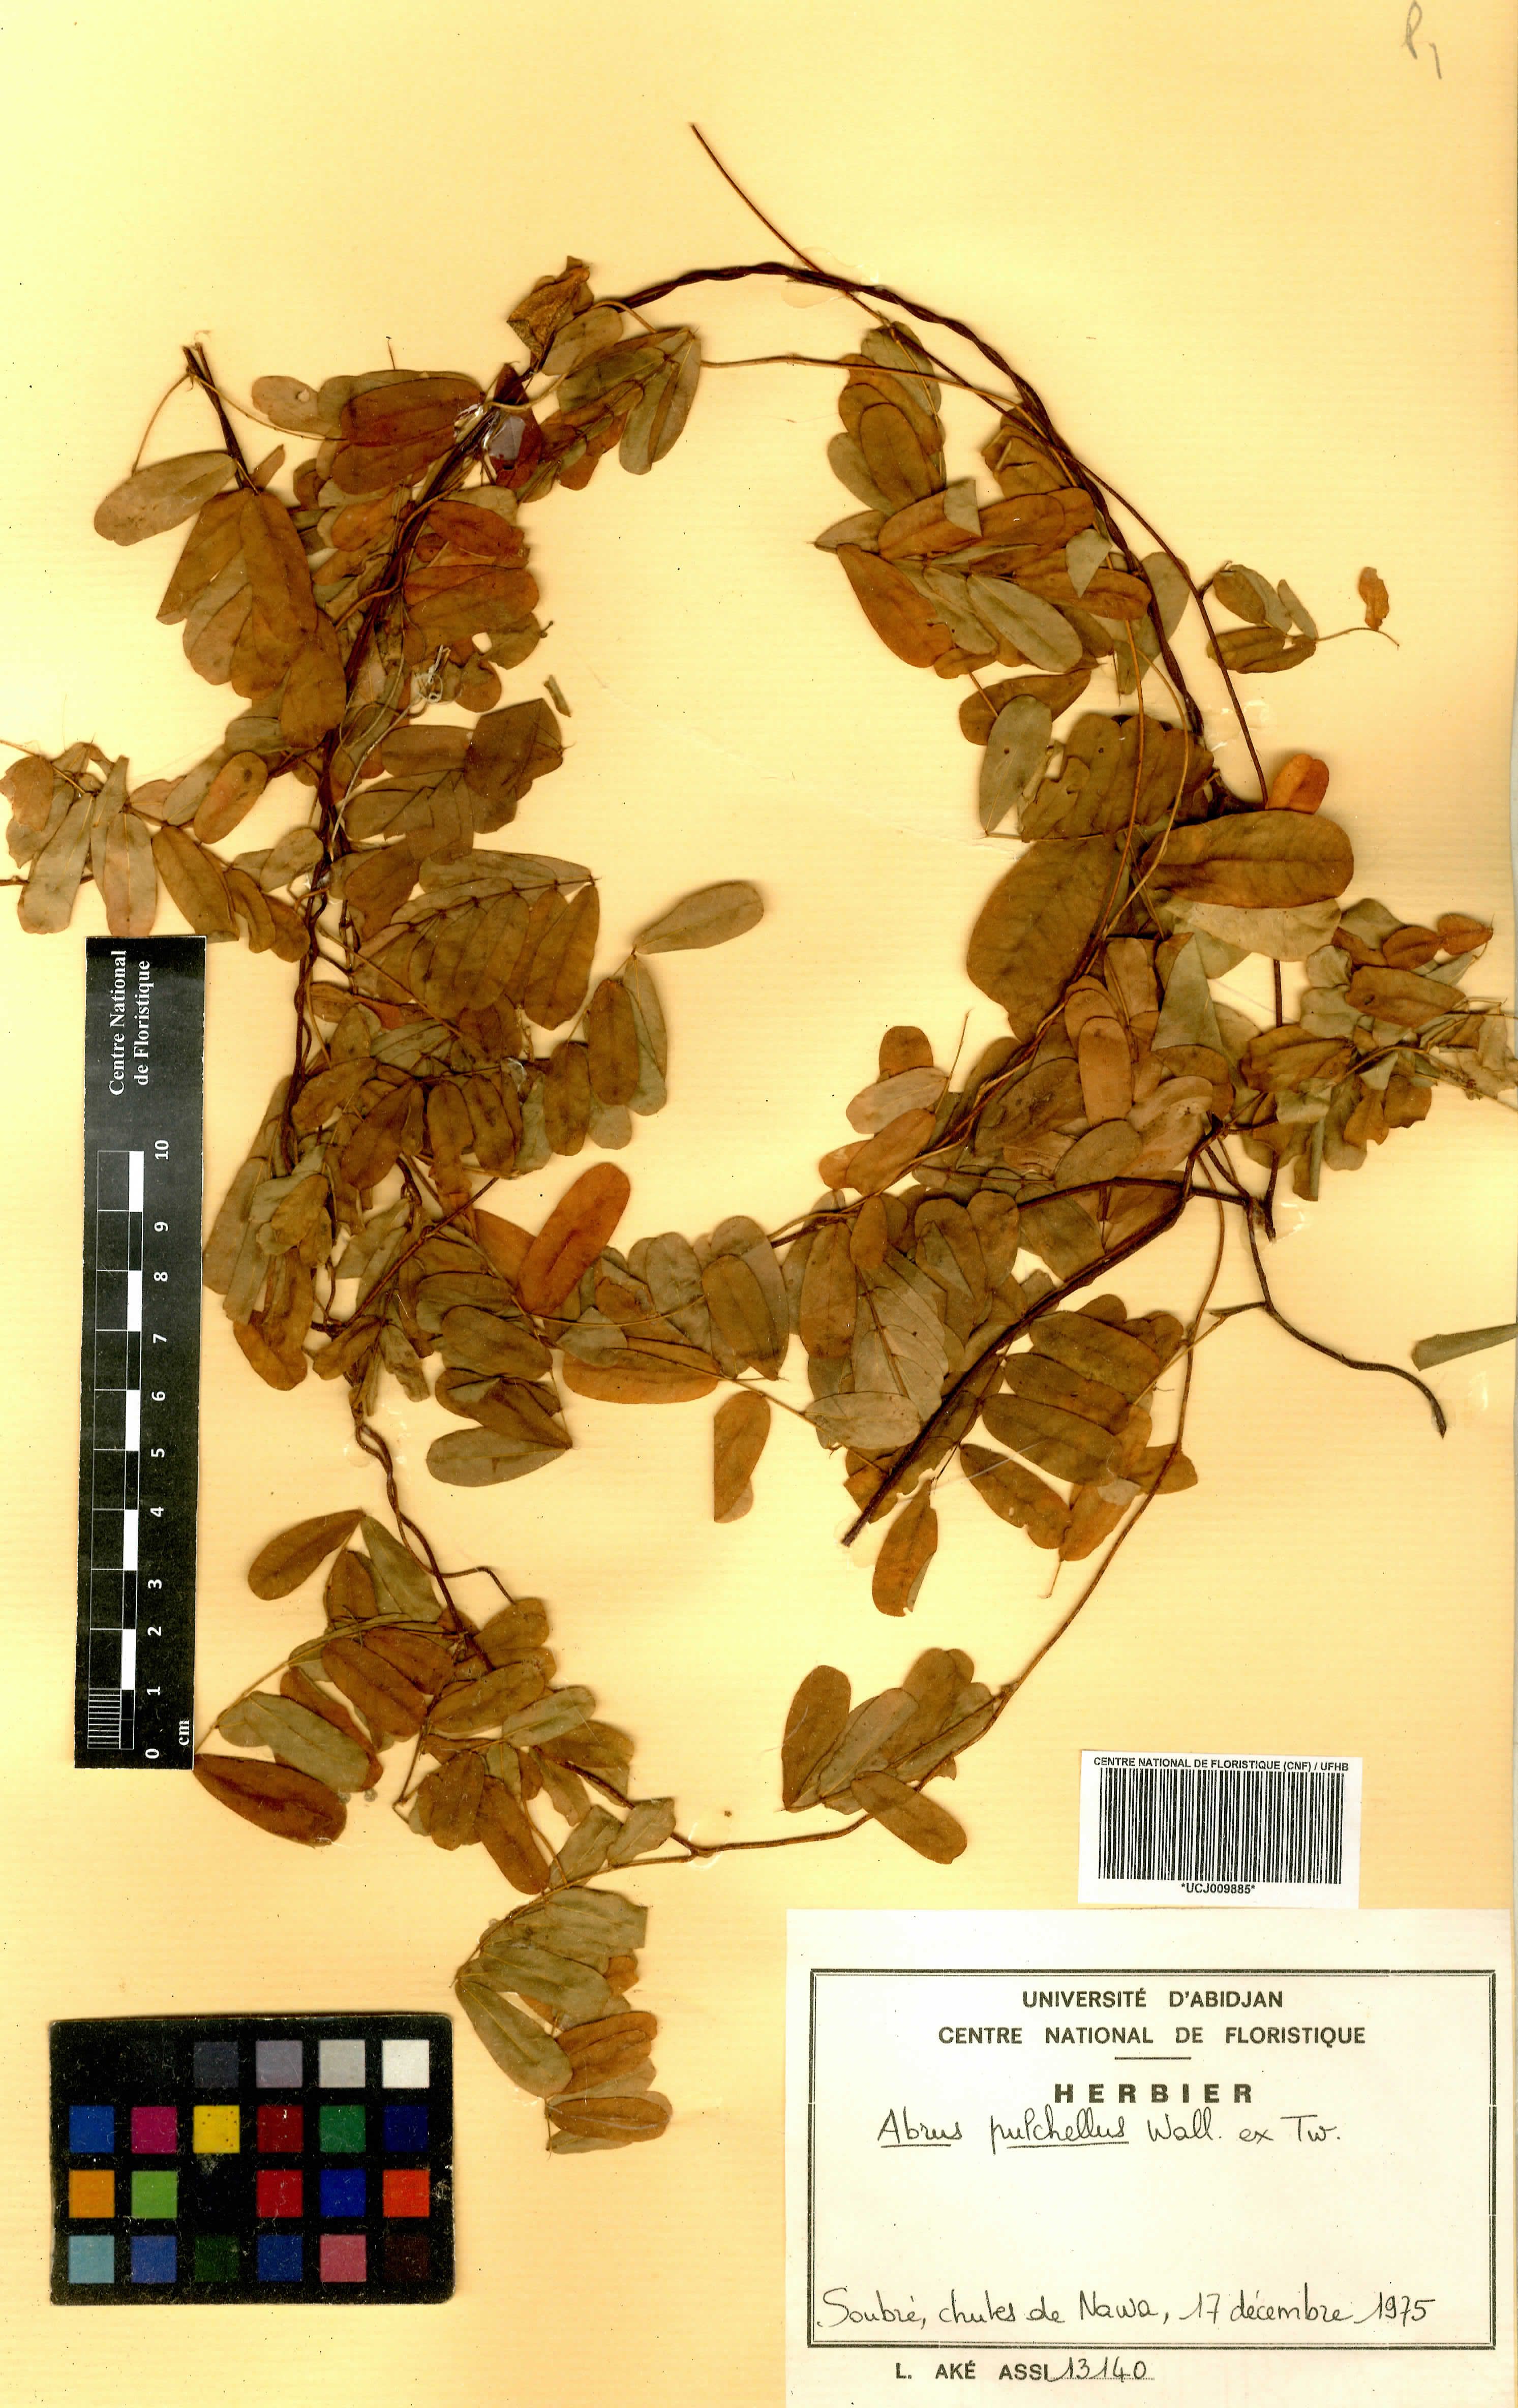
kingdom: Plantae
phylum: Tracheophyta
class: Magnoliopsida
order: Fabales
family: Fabaceae
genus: Abrus
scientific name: Abrus fruticulosus
